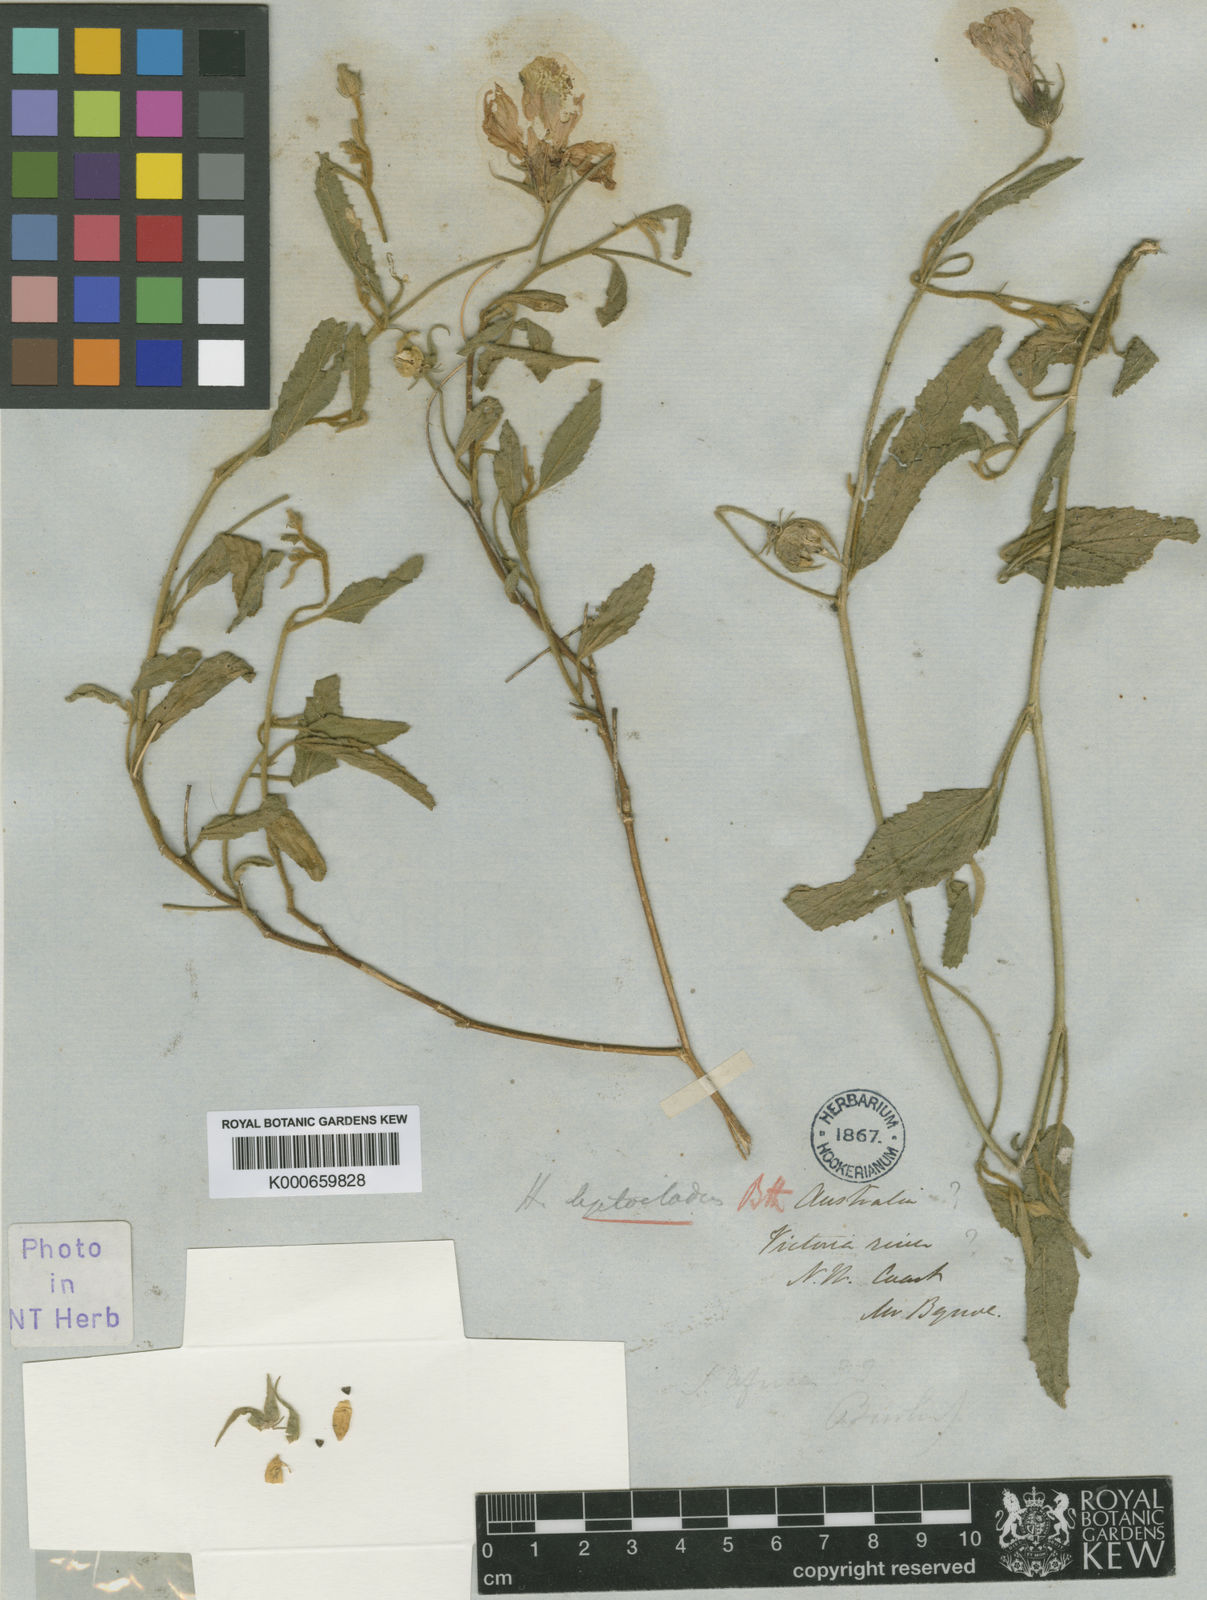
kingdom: Plantae
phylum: Tracheophyta
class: Magnoliopsida
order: Malvales
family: Malvaceae
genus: Hibiscus
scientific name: Hibiscus leptocladus
